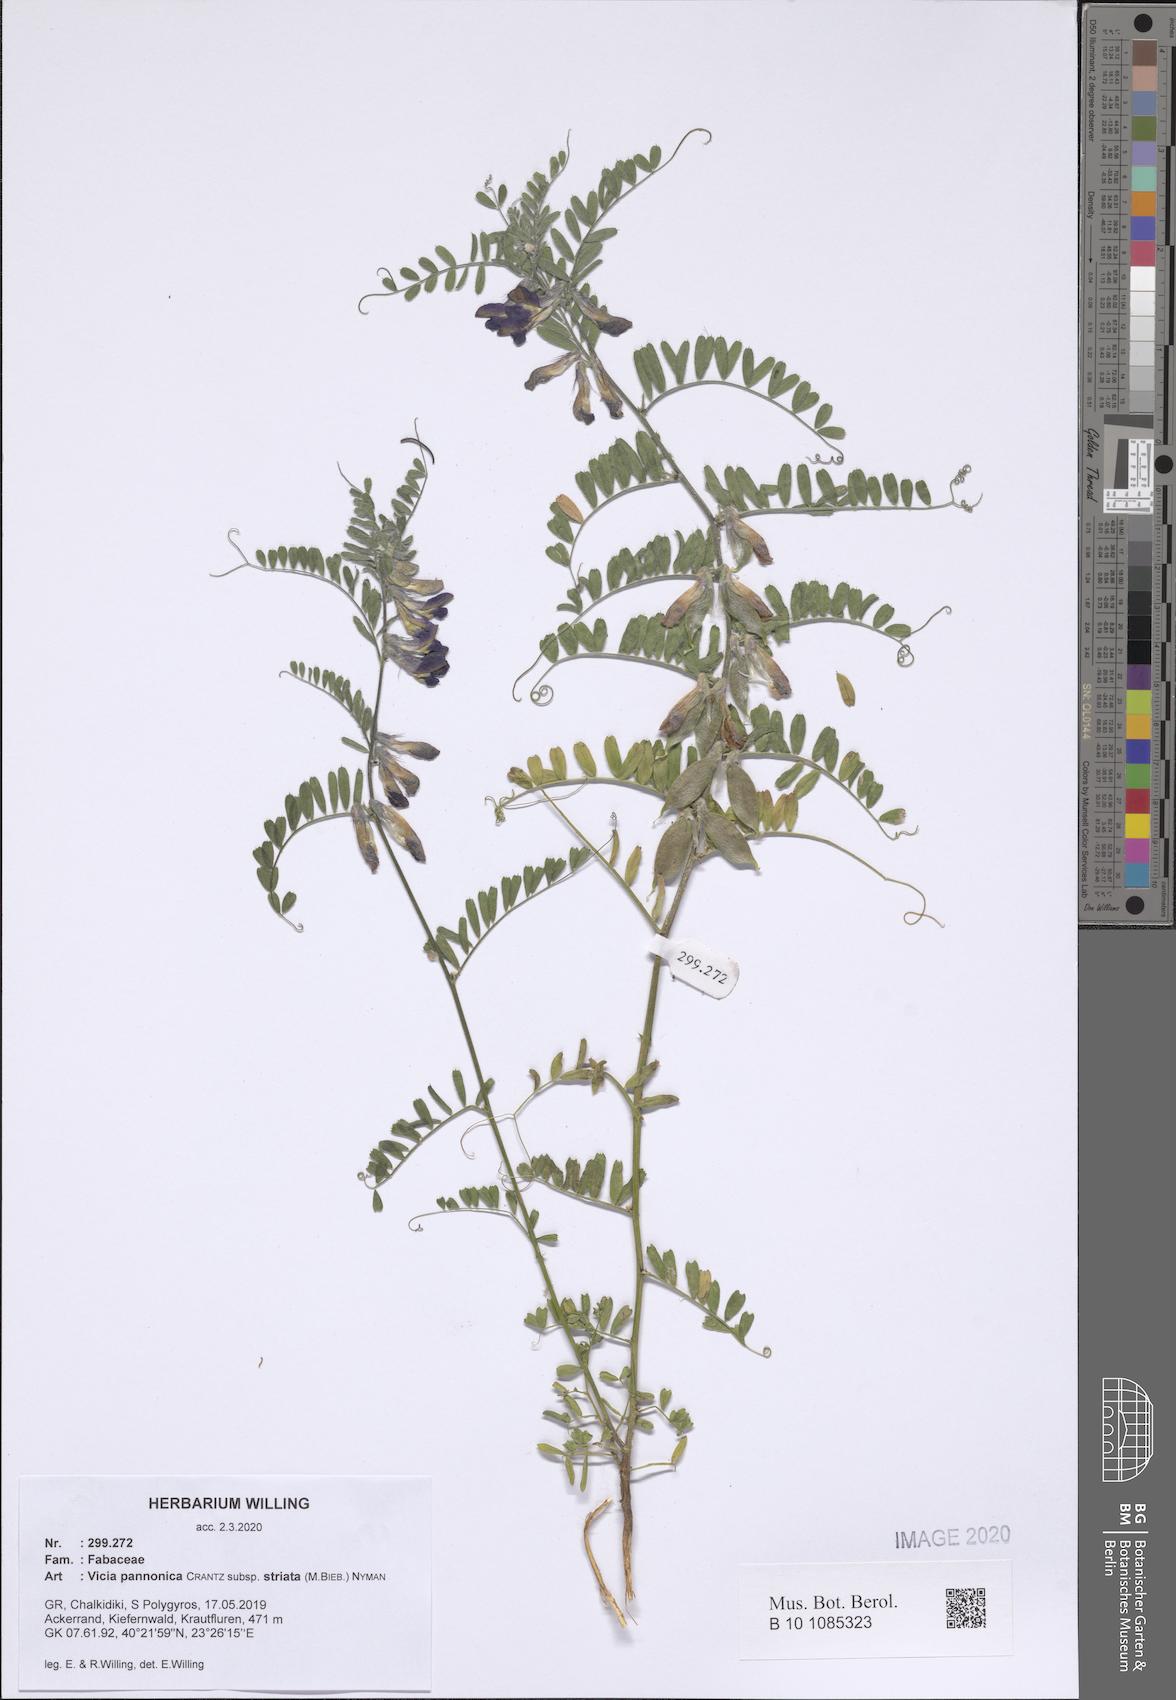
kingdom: Plantae
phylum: Tracheophyta
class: Magnoliopsida
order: Fabales
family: Fabaceae
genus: Vicia
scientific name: Vicia pannonica
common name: Hungarian vetch
